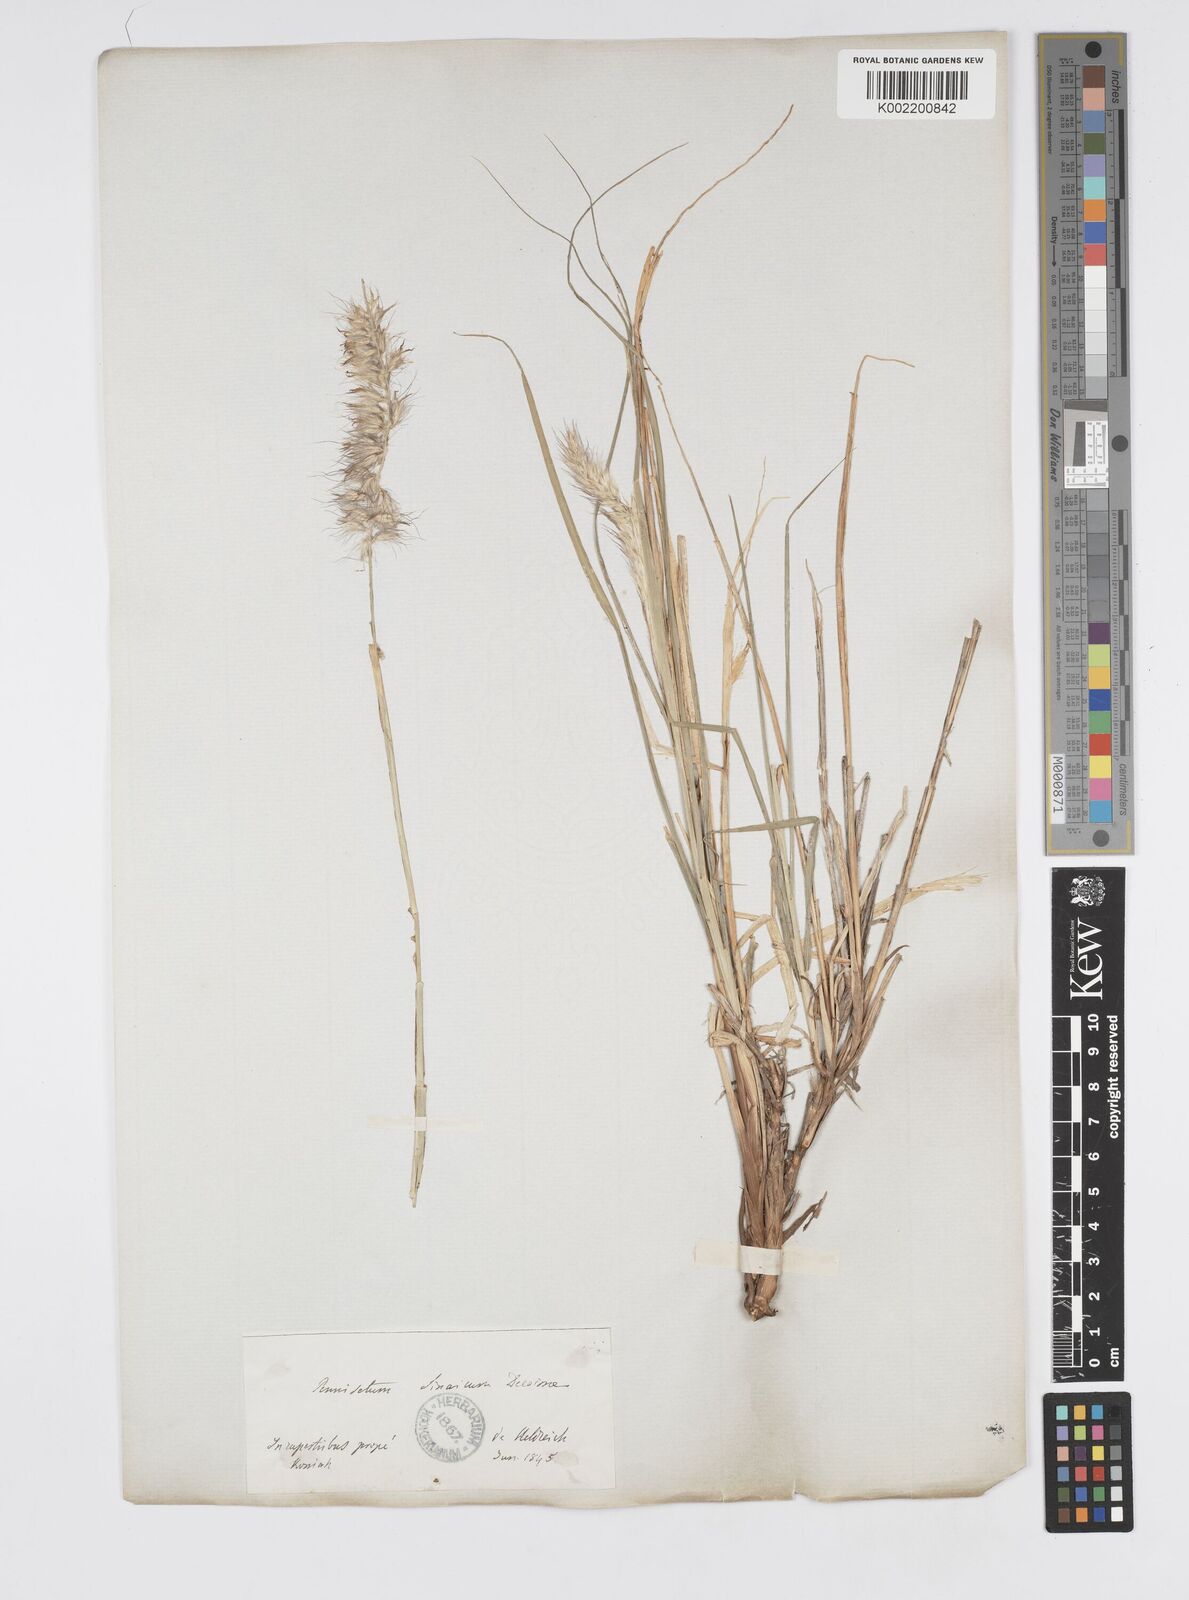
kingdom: Plantae
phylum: Tracheophyta
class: Liliopsida
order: Poales
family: Poaceae
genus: Cenchrus
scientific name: Cenchrus orientalis
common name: Oriental fountain grass
